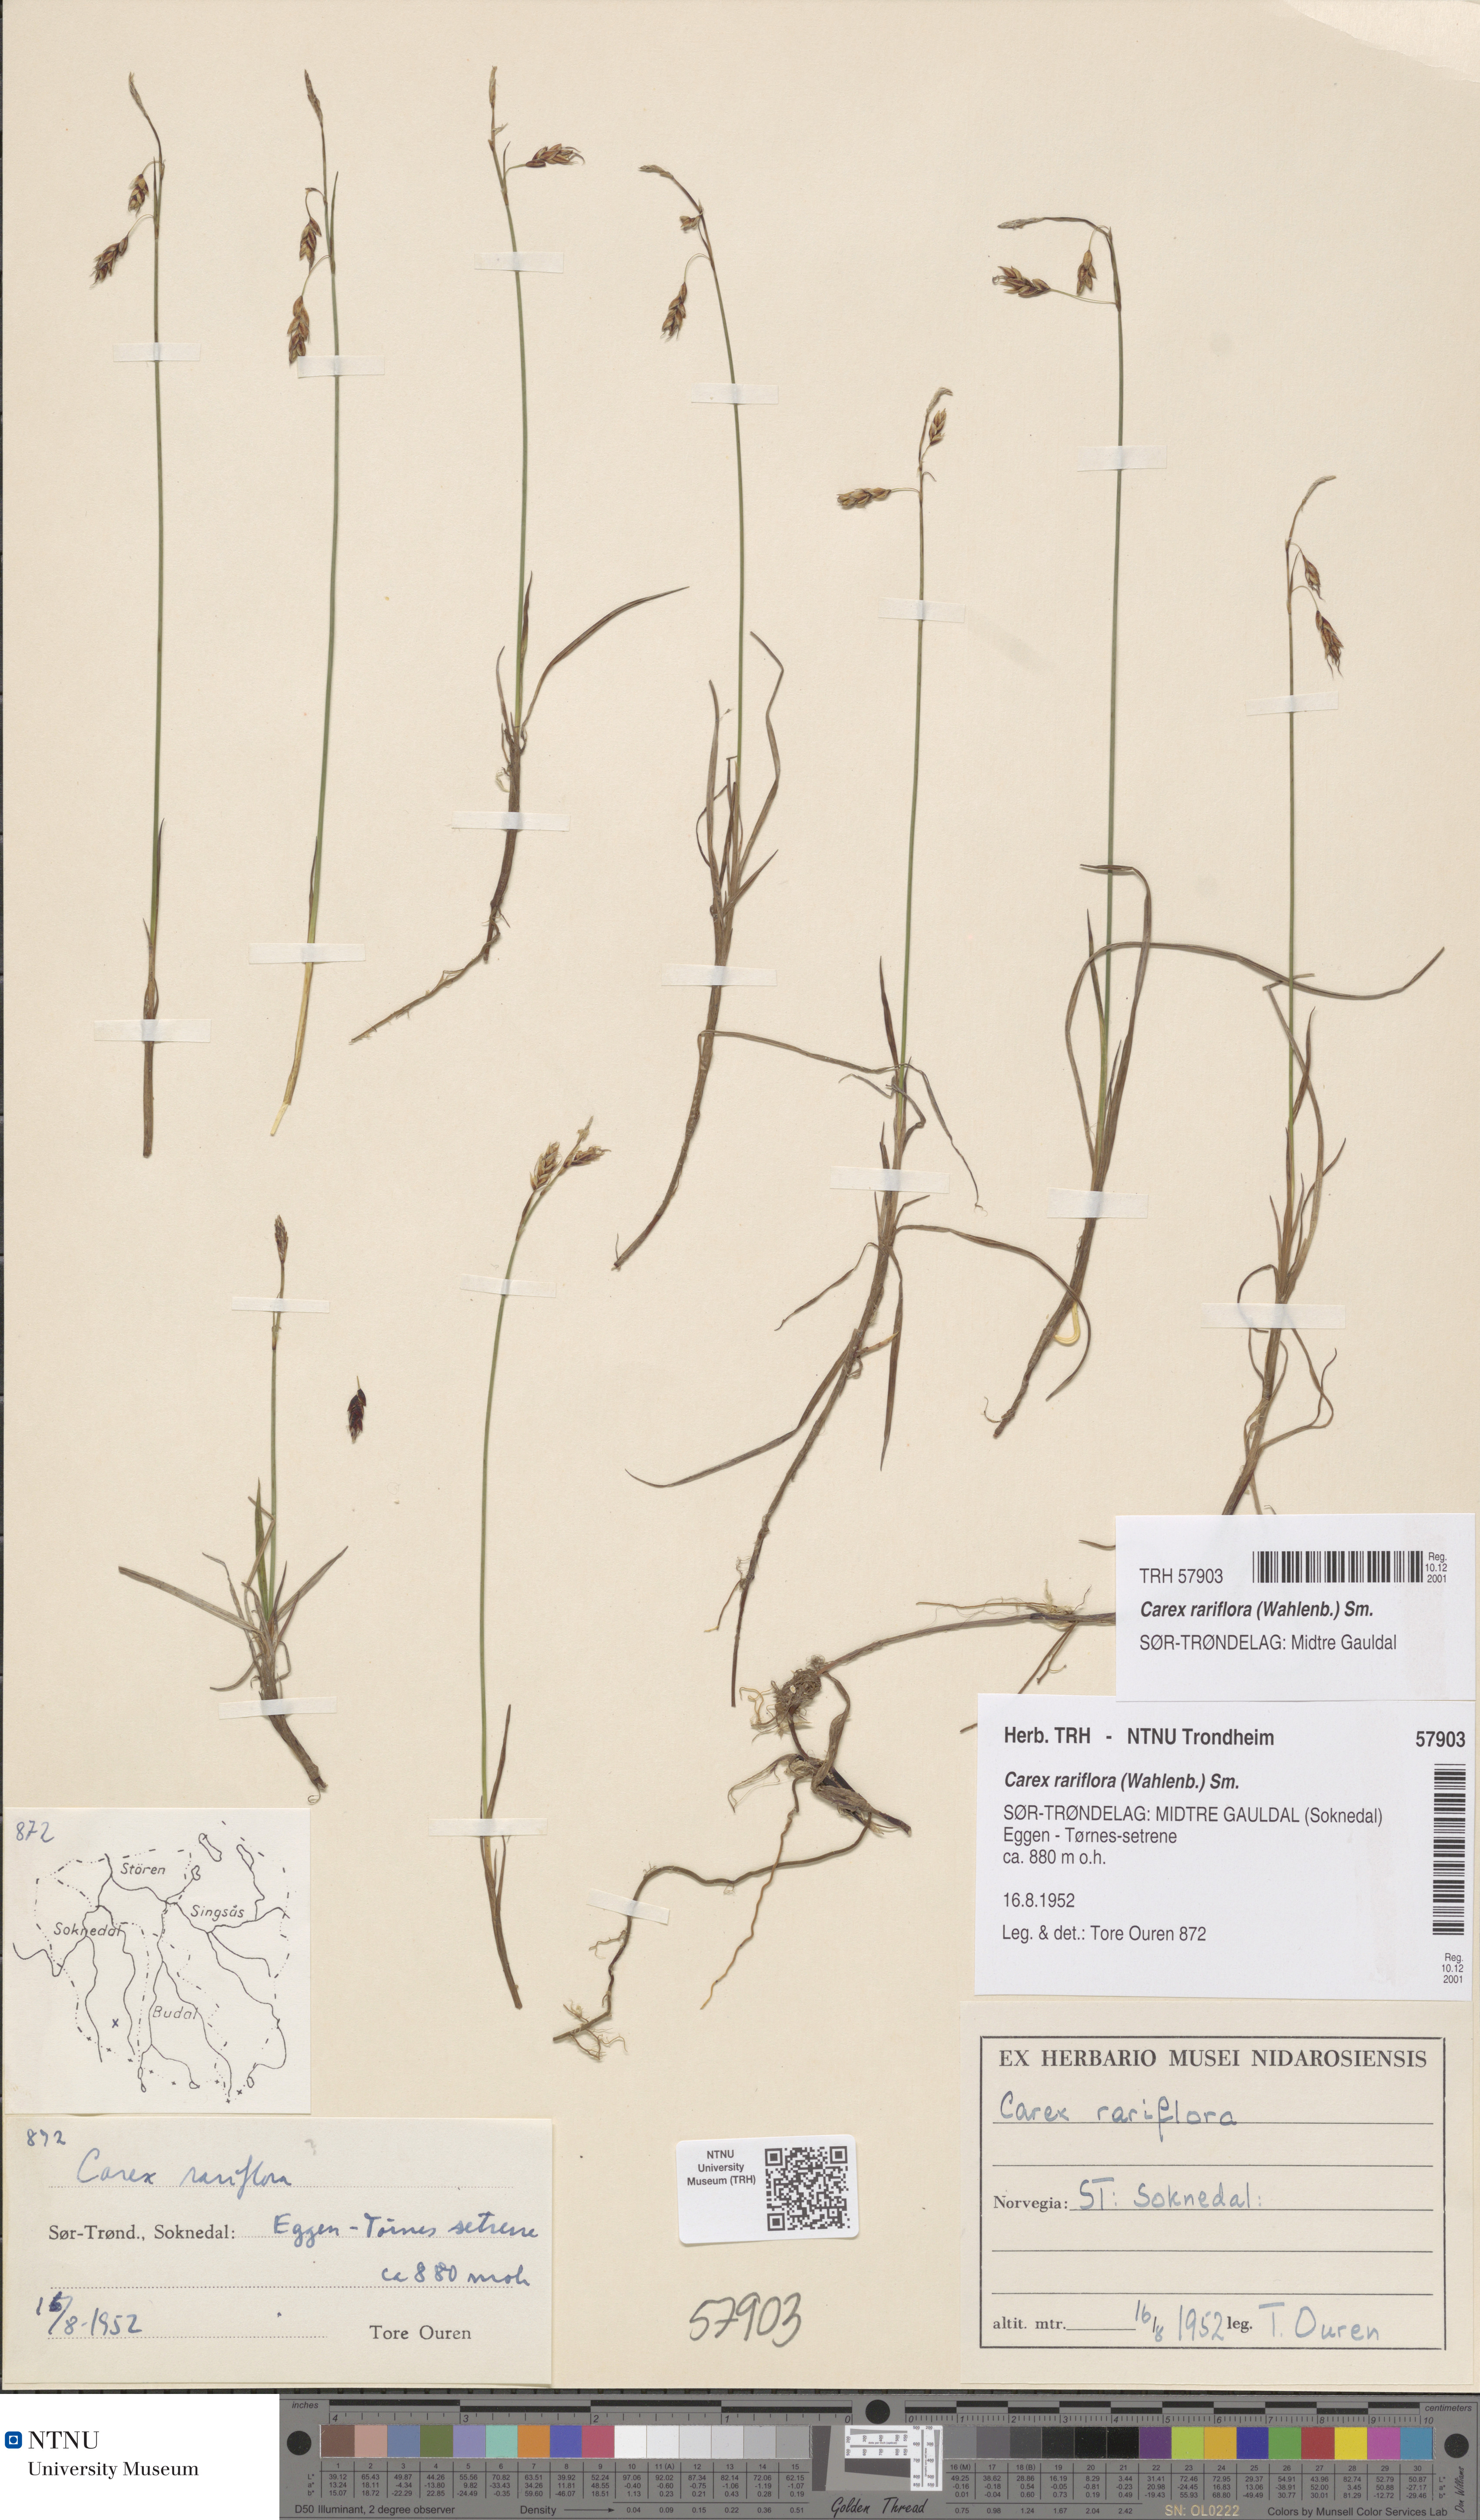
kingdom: Plantae
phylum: Tracheophyta
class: Liliopsida
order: Poales
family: Cyperaceae
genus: Carex
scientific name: Carex rariflora
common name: Loose-flowered alpine sedge
